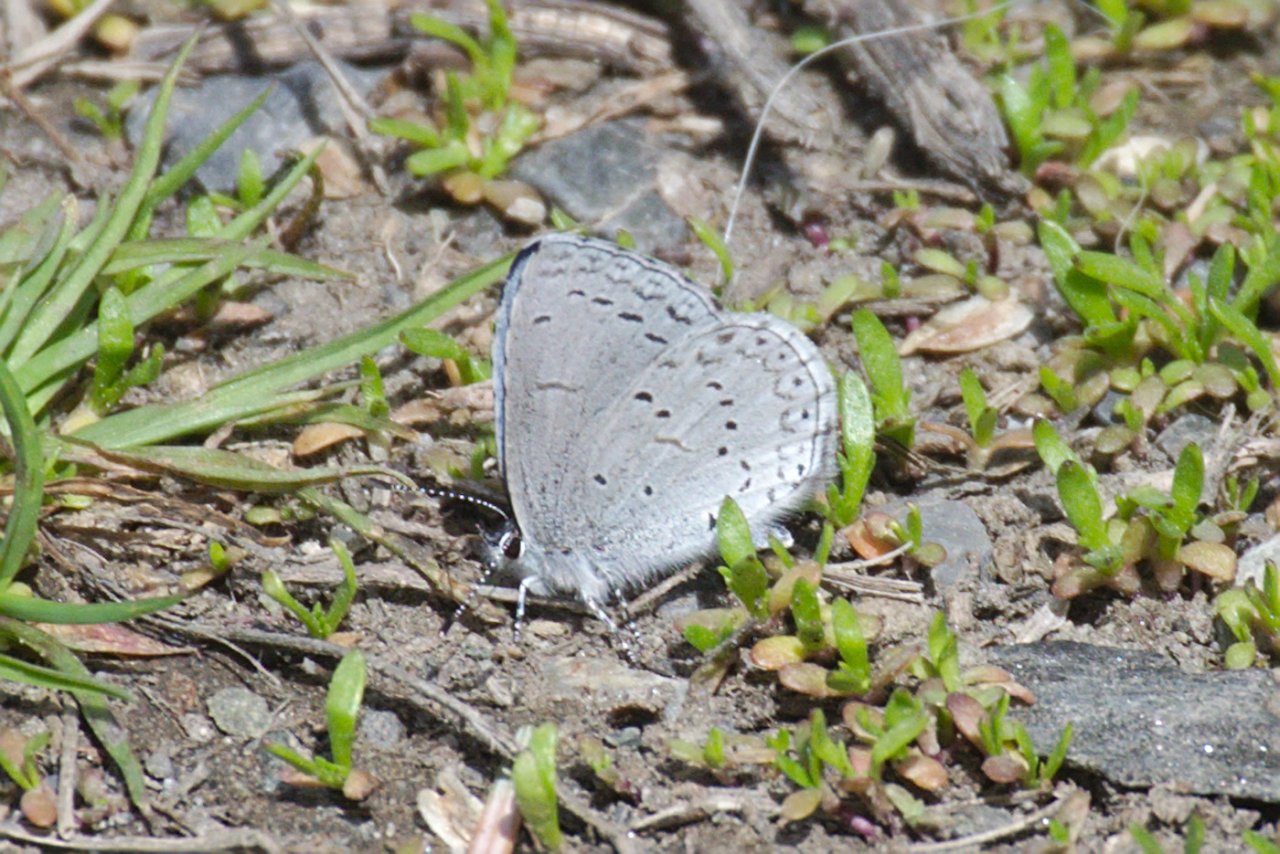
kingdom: Animalia
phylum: Arthropoda
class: Insecta
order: Lepidoptera
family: Lycaenidae
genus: Celastrina
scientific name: Celastrina ladon
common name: Echo Azure
